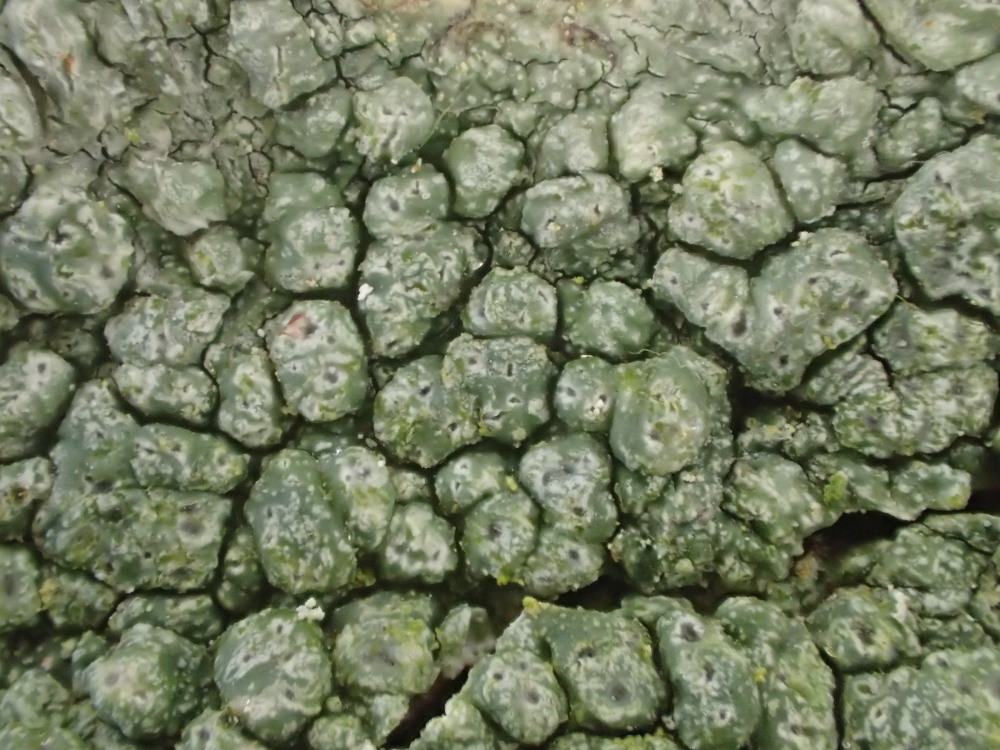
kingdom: Fungi
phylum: Ascomycota
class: Lecanoromycetes
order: Pertusariales
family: Pertusariaceae
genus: Pertusaria
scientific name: Pertusaria pertusa
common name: almindelig prikvortelav
